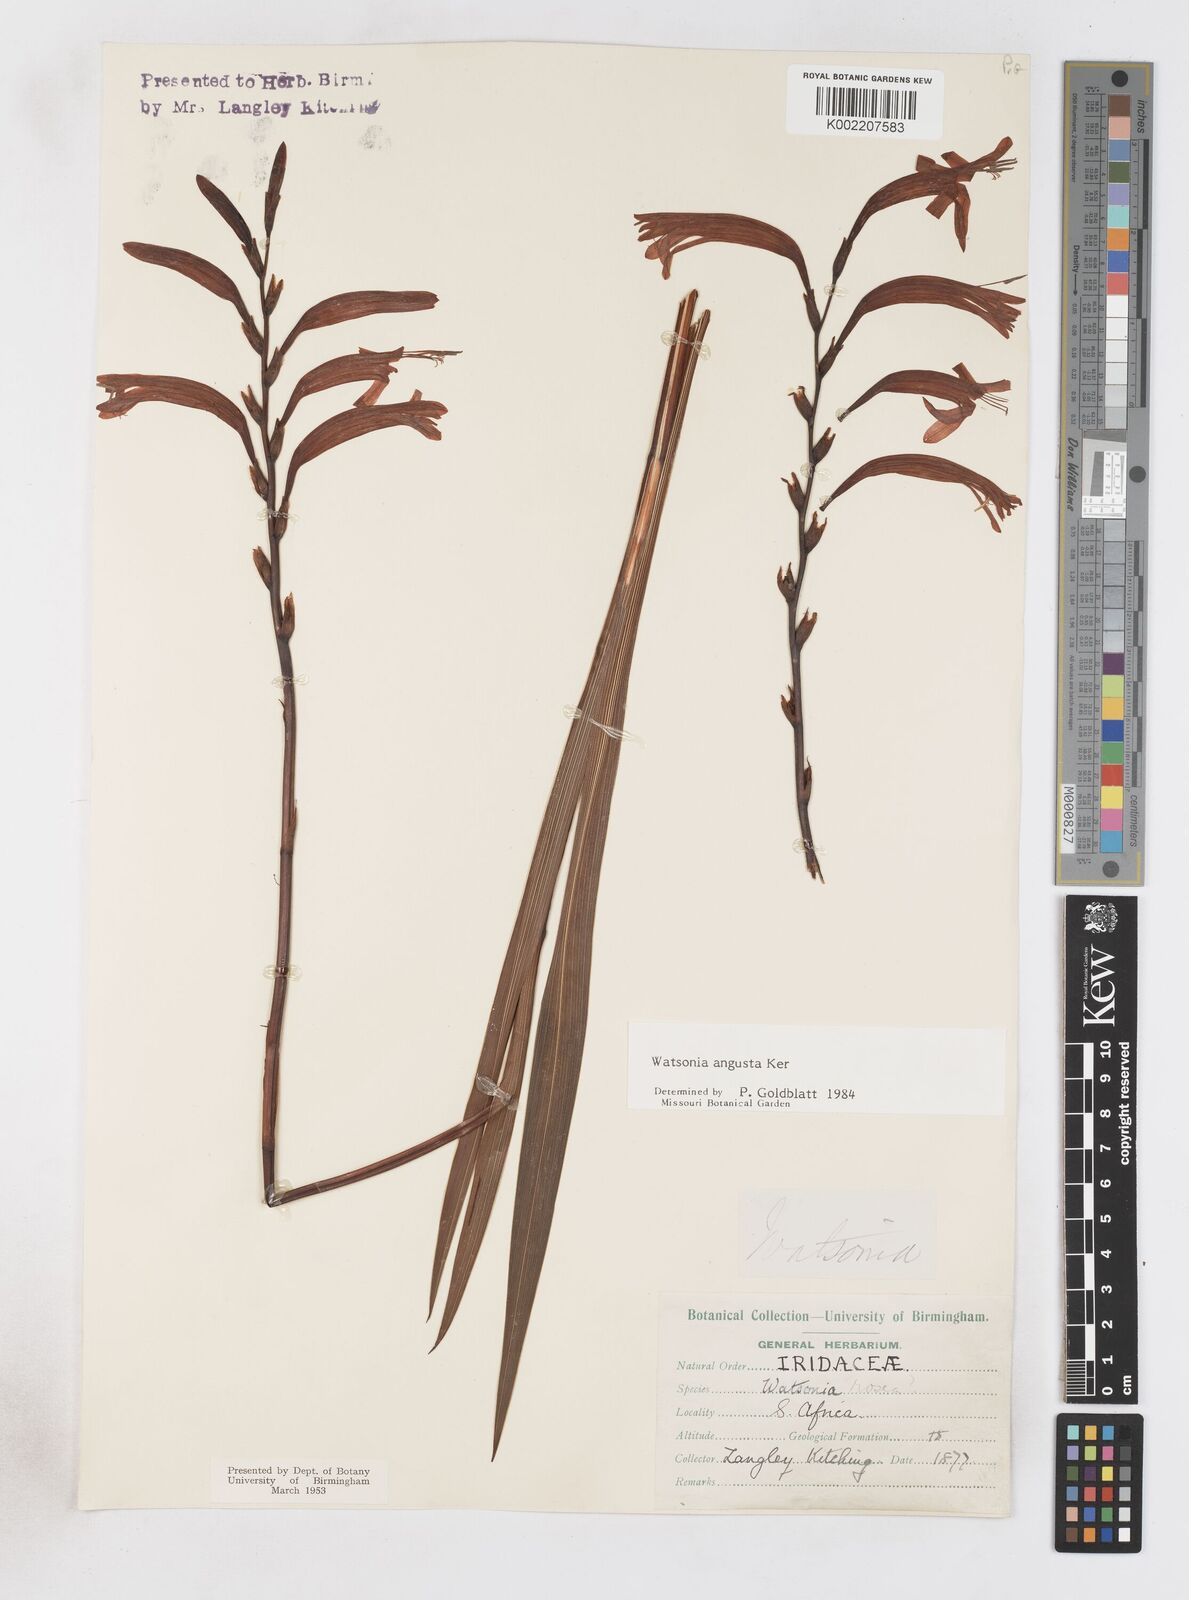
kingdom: Plantae
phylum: Tracheophyta
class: Liliopsida
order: Asparagales
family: Iridaceae
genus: Watsonia
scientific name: Watsonia angusta
